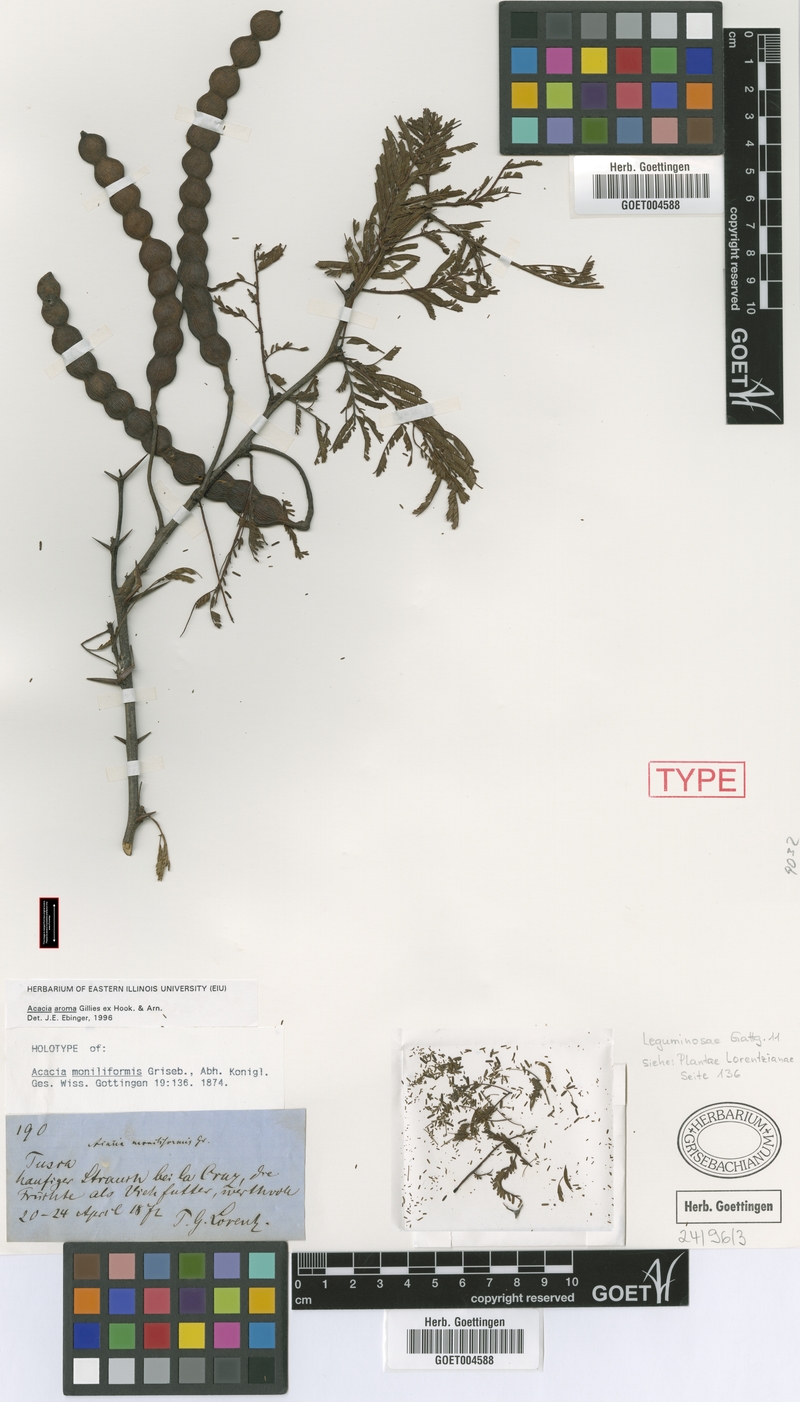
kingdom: Plantae
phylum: Tracheophyta
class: Magnoliopsida
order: Fabales
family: Fabaceae
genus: Vachellia
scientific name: Vachellia aroma
